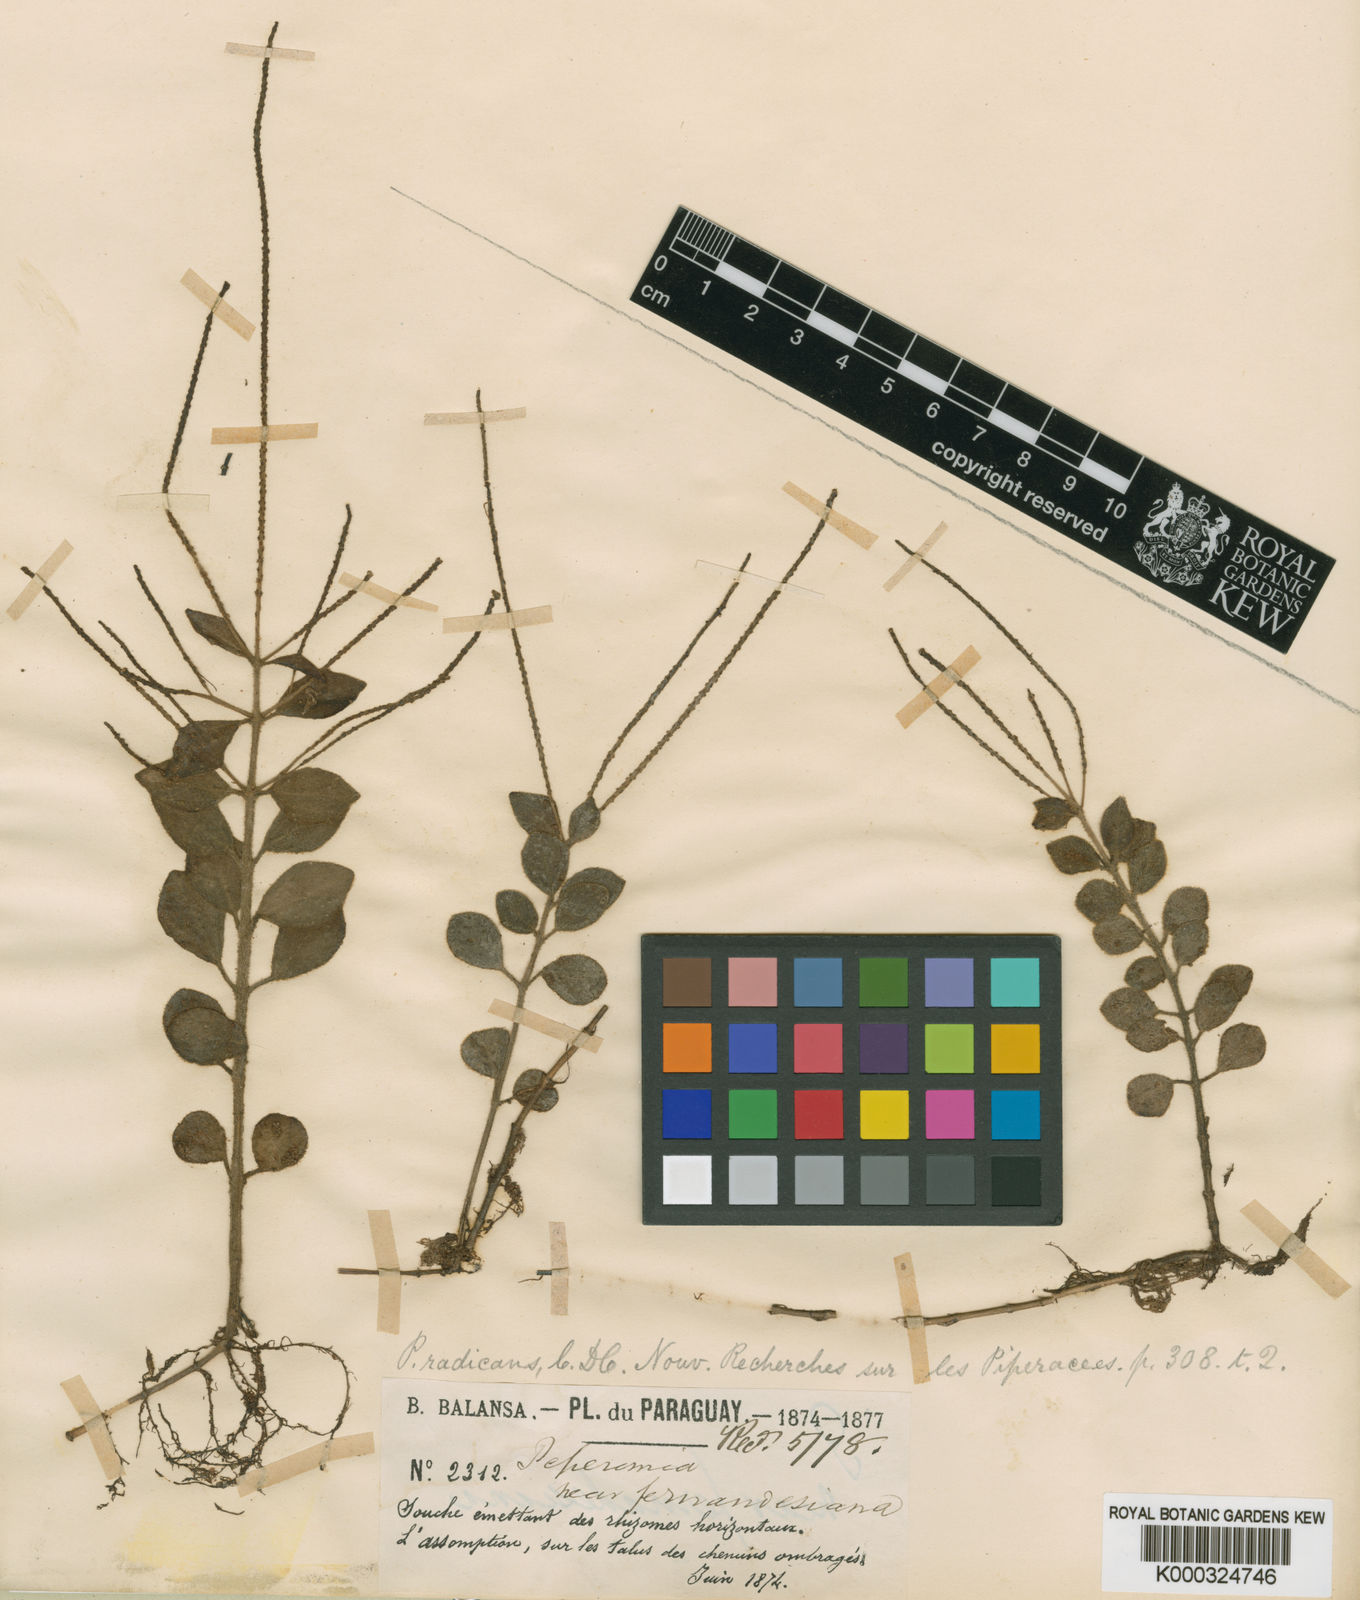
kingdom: Plantae
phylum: Tracheophyta
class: Magnoliopsida
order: Piperales
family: Piperaceae
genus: Peperomia
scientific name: Peperomia increscens
